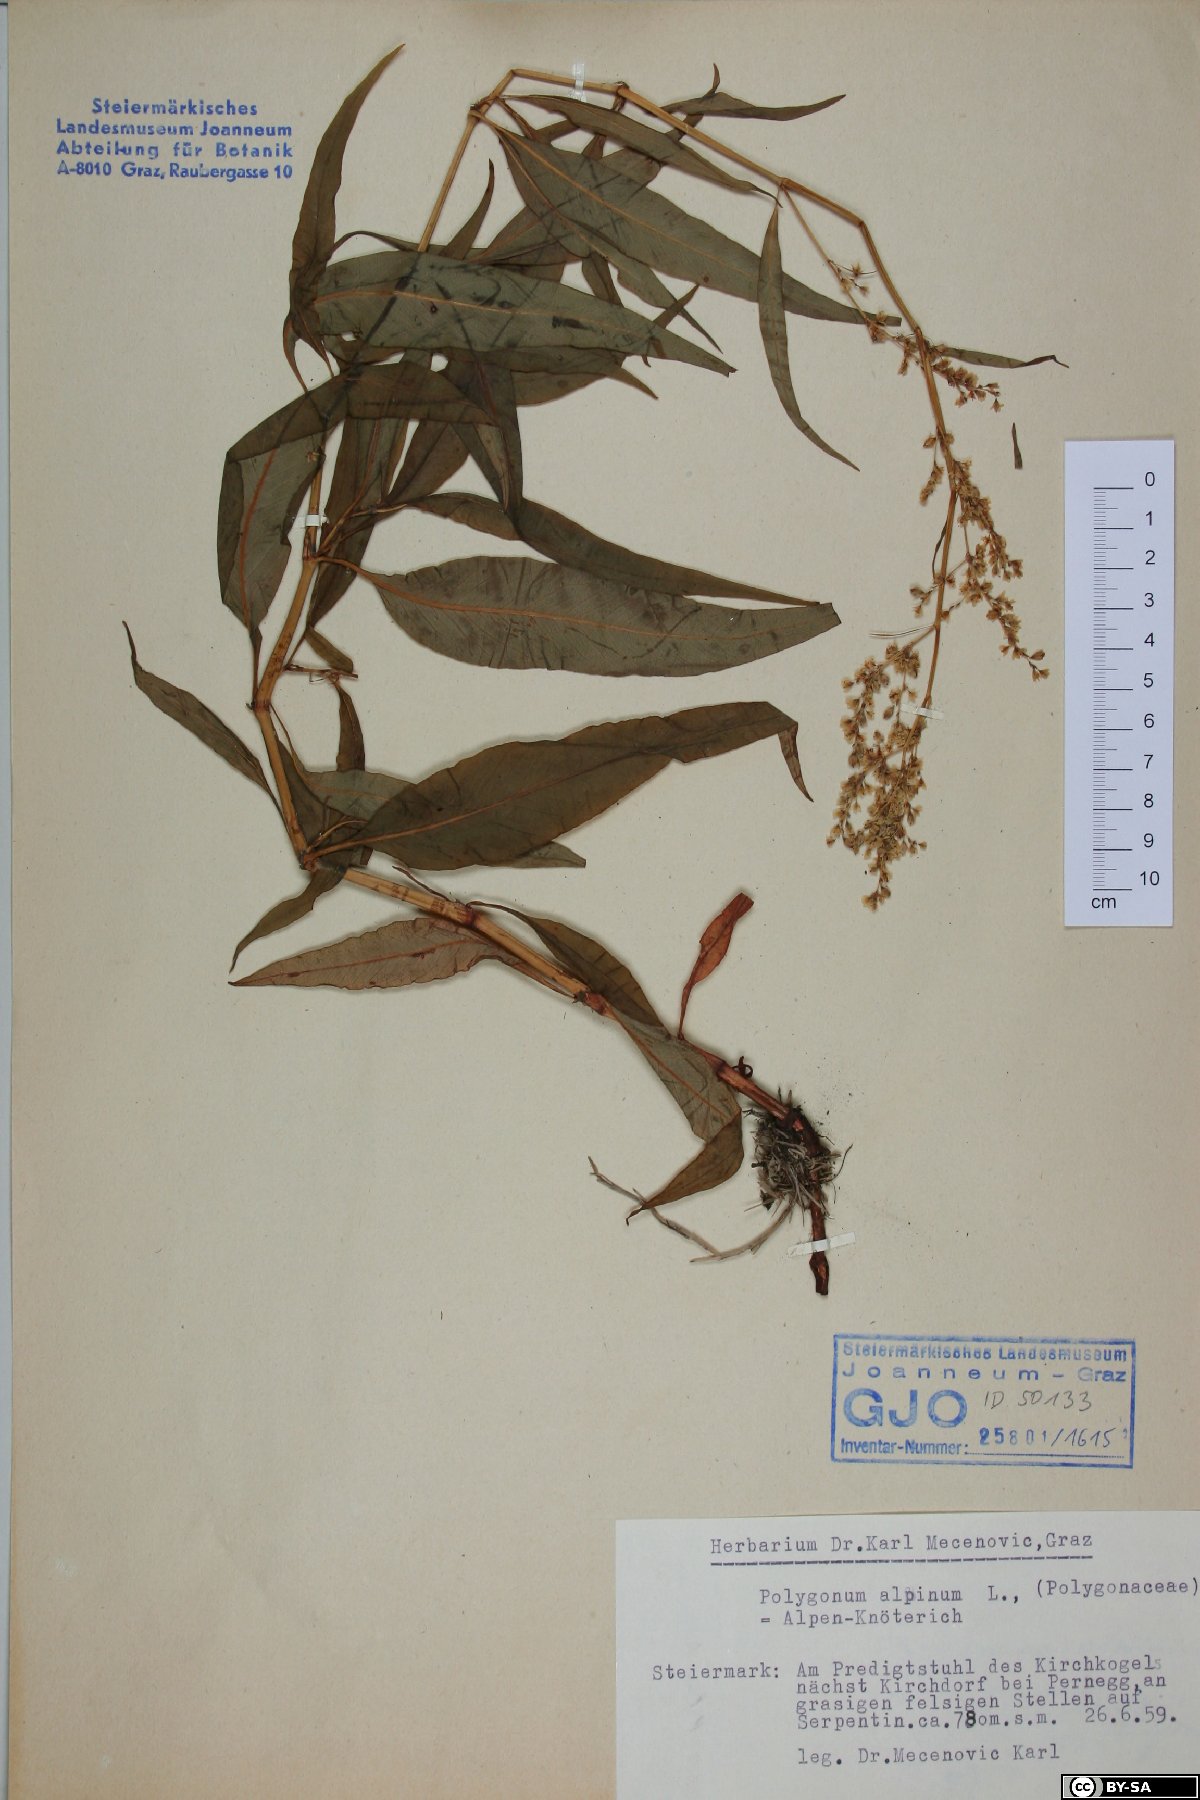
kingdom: Plantae
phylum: Tracheophyta
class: Magnoliopsida
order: Caryophyllales
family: Polygonaceae
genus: Koenigia
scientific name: Koenigia alpina
